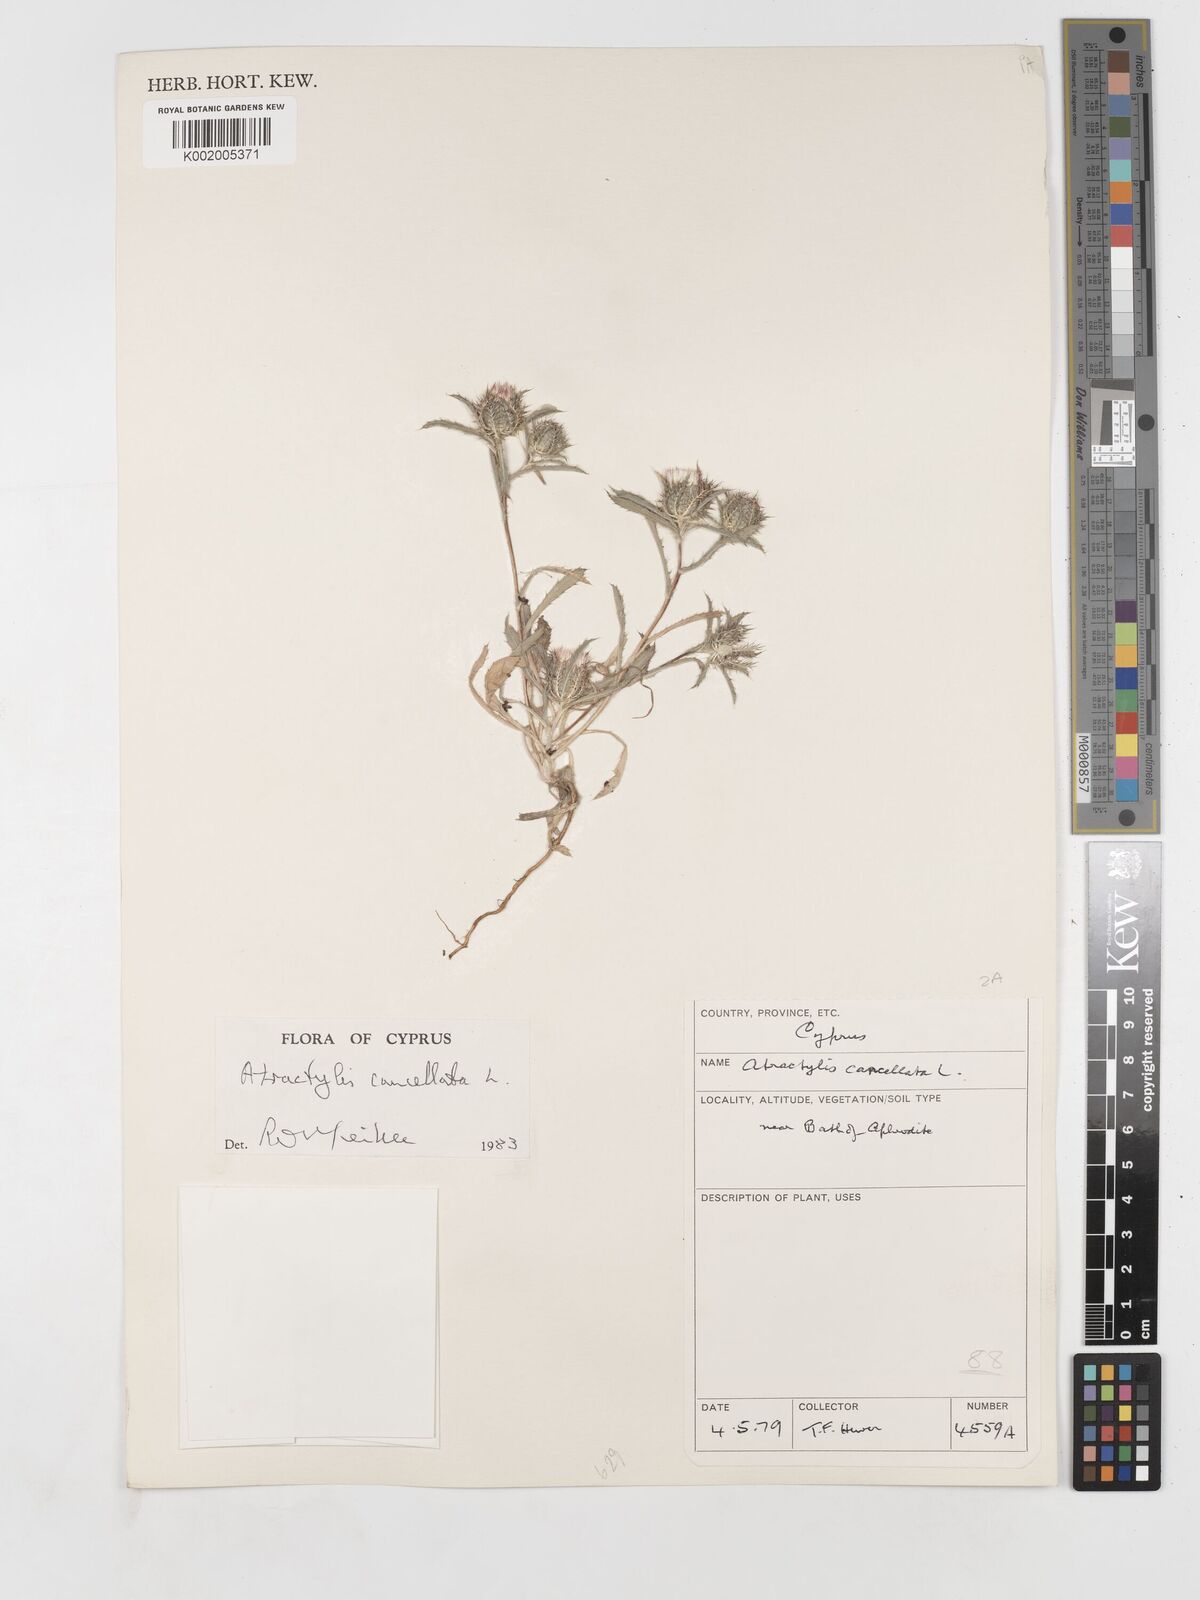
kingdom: Plantae
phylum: Tracheophyta
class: Magnoliopsida
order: Asterales
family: Asteraceae
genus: Atractylis
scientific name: Atractylis cancellata
